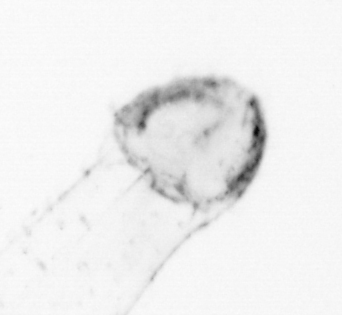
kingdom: Animalia
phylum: Annelida
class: Polychaeta
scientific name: Polychaeta
